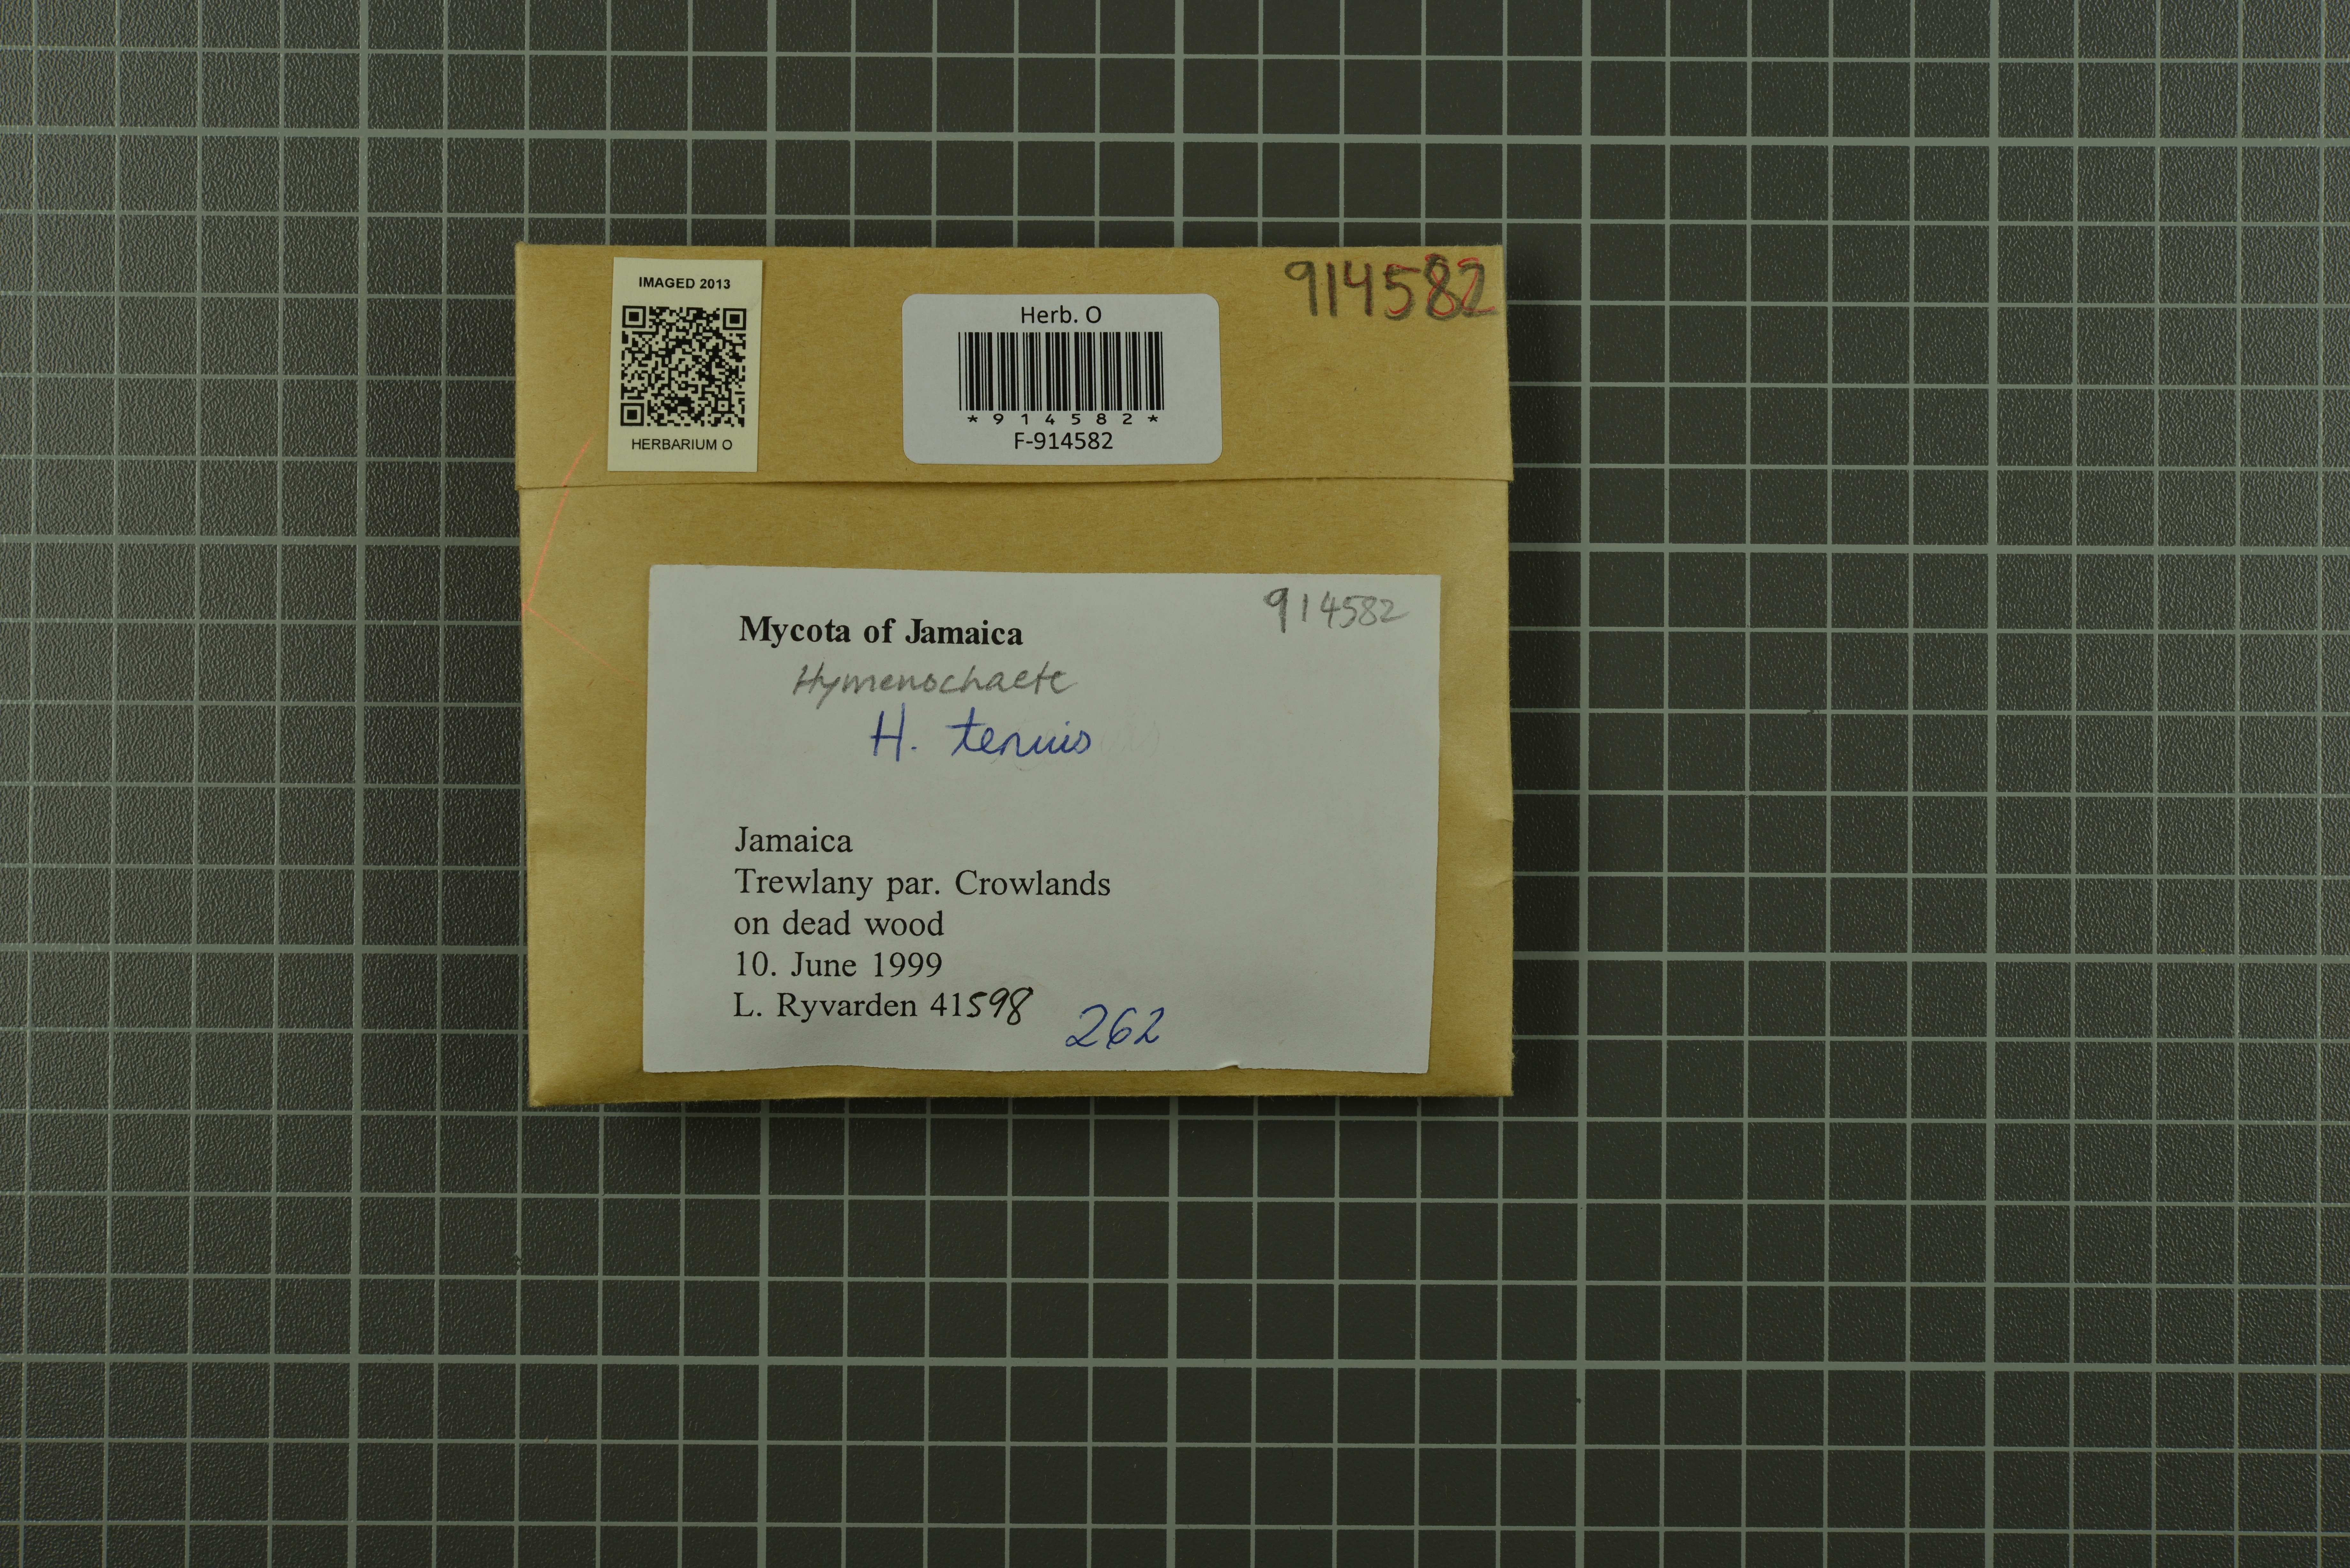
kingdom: Fungi
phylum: Basidiomycota
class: Agaricomycetes
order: Hymenochaetales
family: Hymenochaetaceae
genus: Hymenochaete
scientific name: Hymenochaete tenuis
